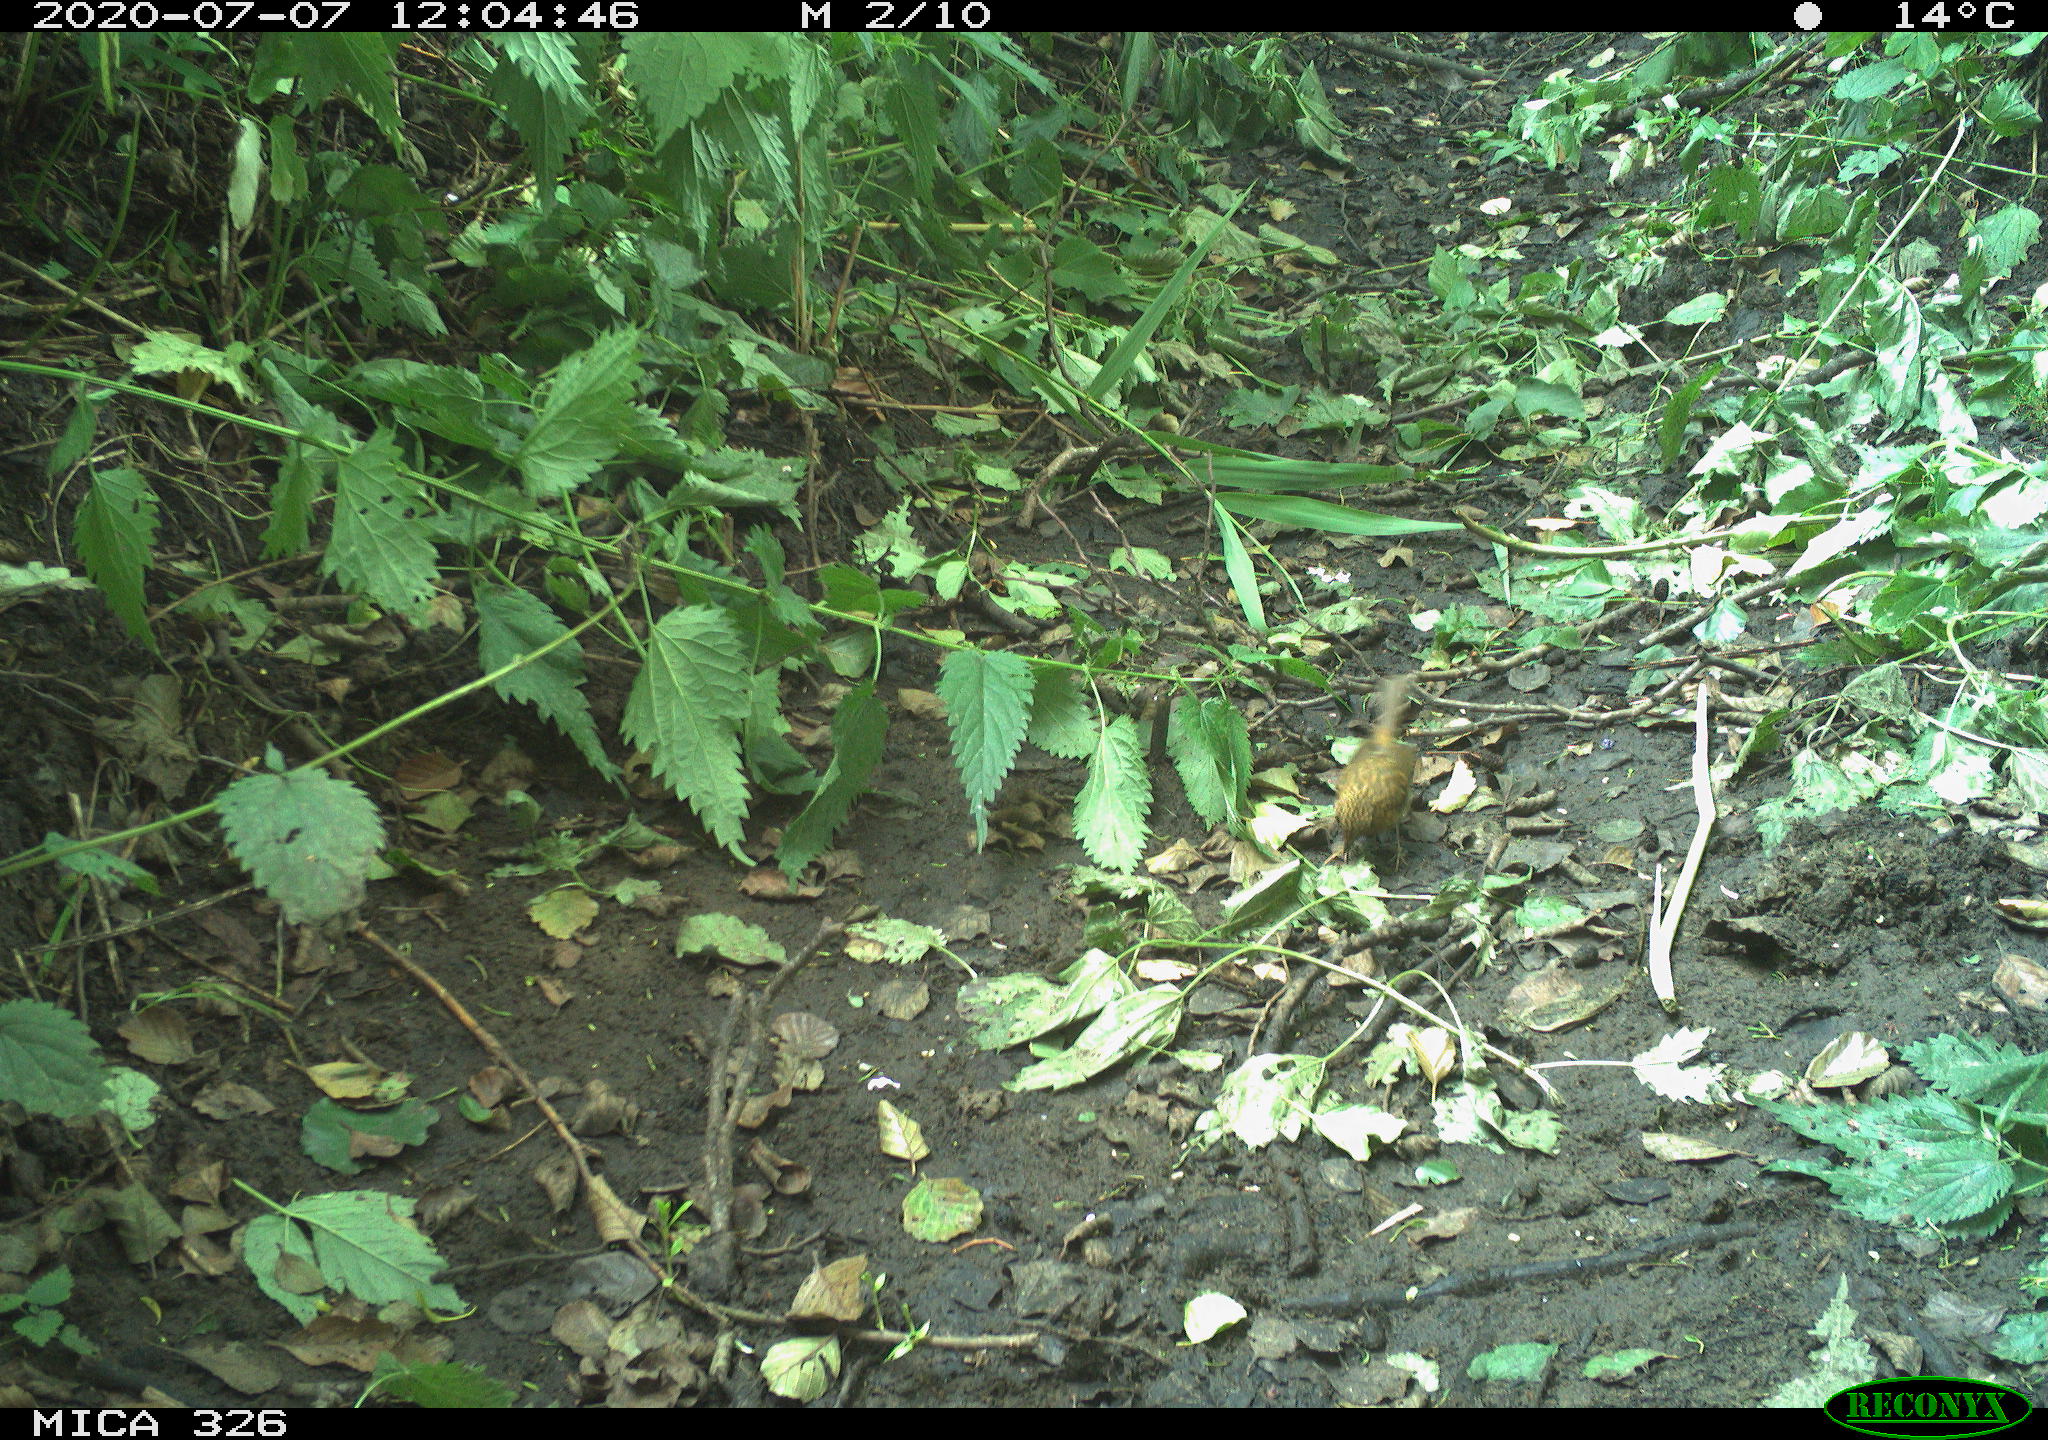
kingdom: Animalia
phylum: Chordata
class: Aves
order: Passeriformes
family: Muscicapidae
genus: Erithacus
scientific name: Erithacus rubecula
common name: European robin
